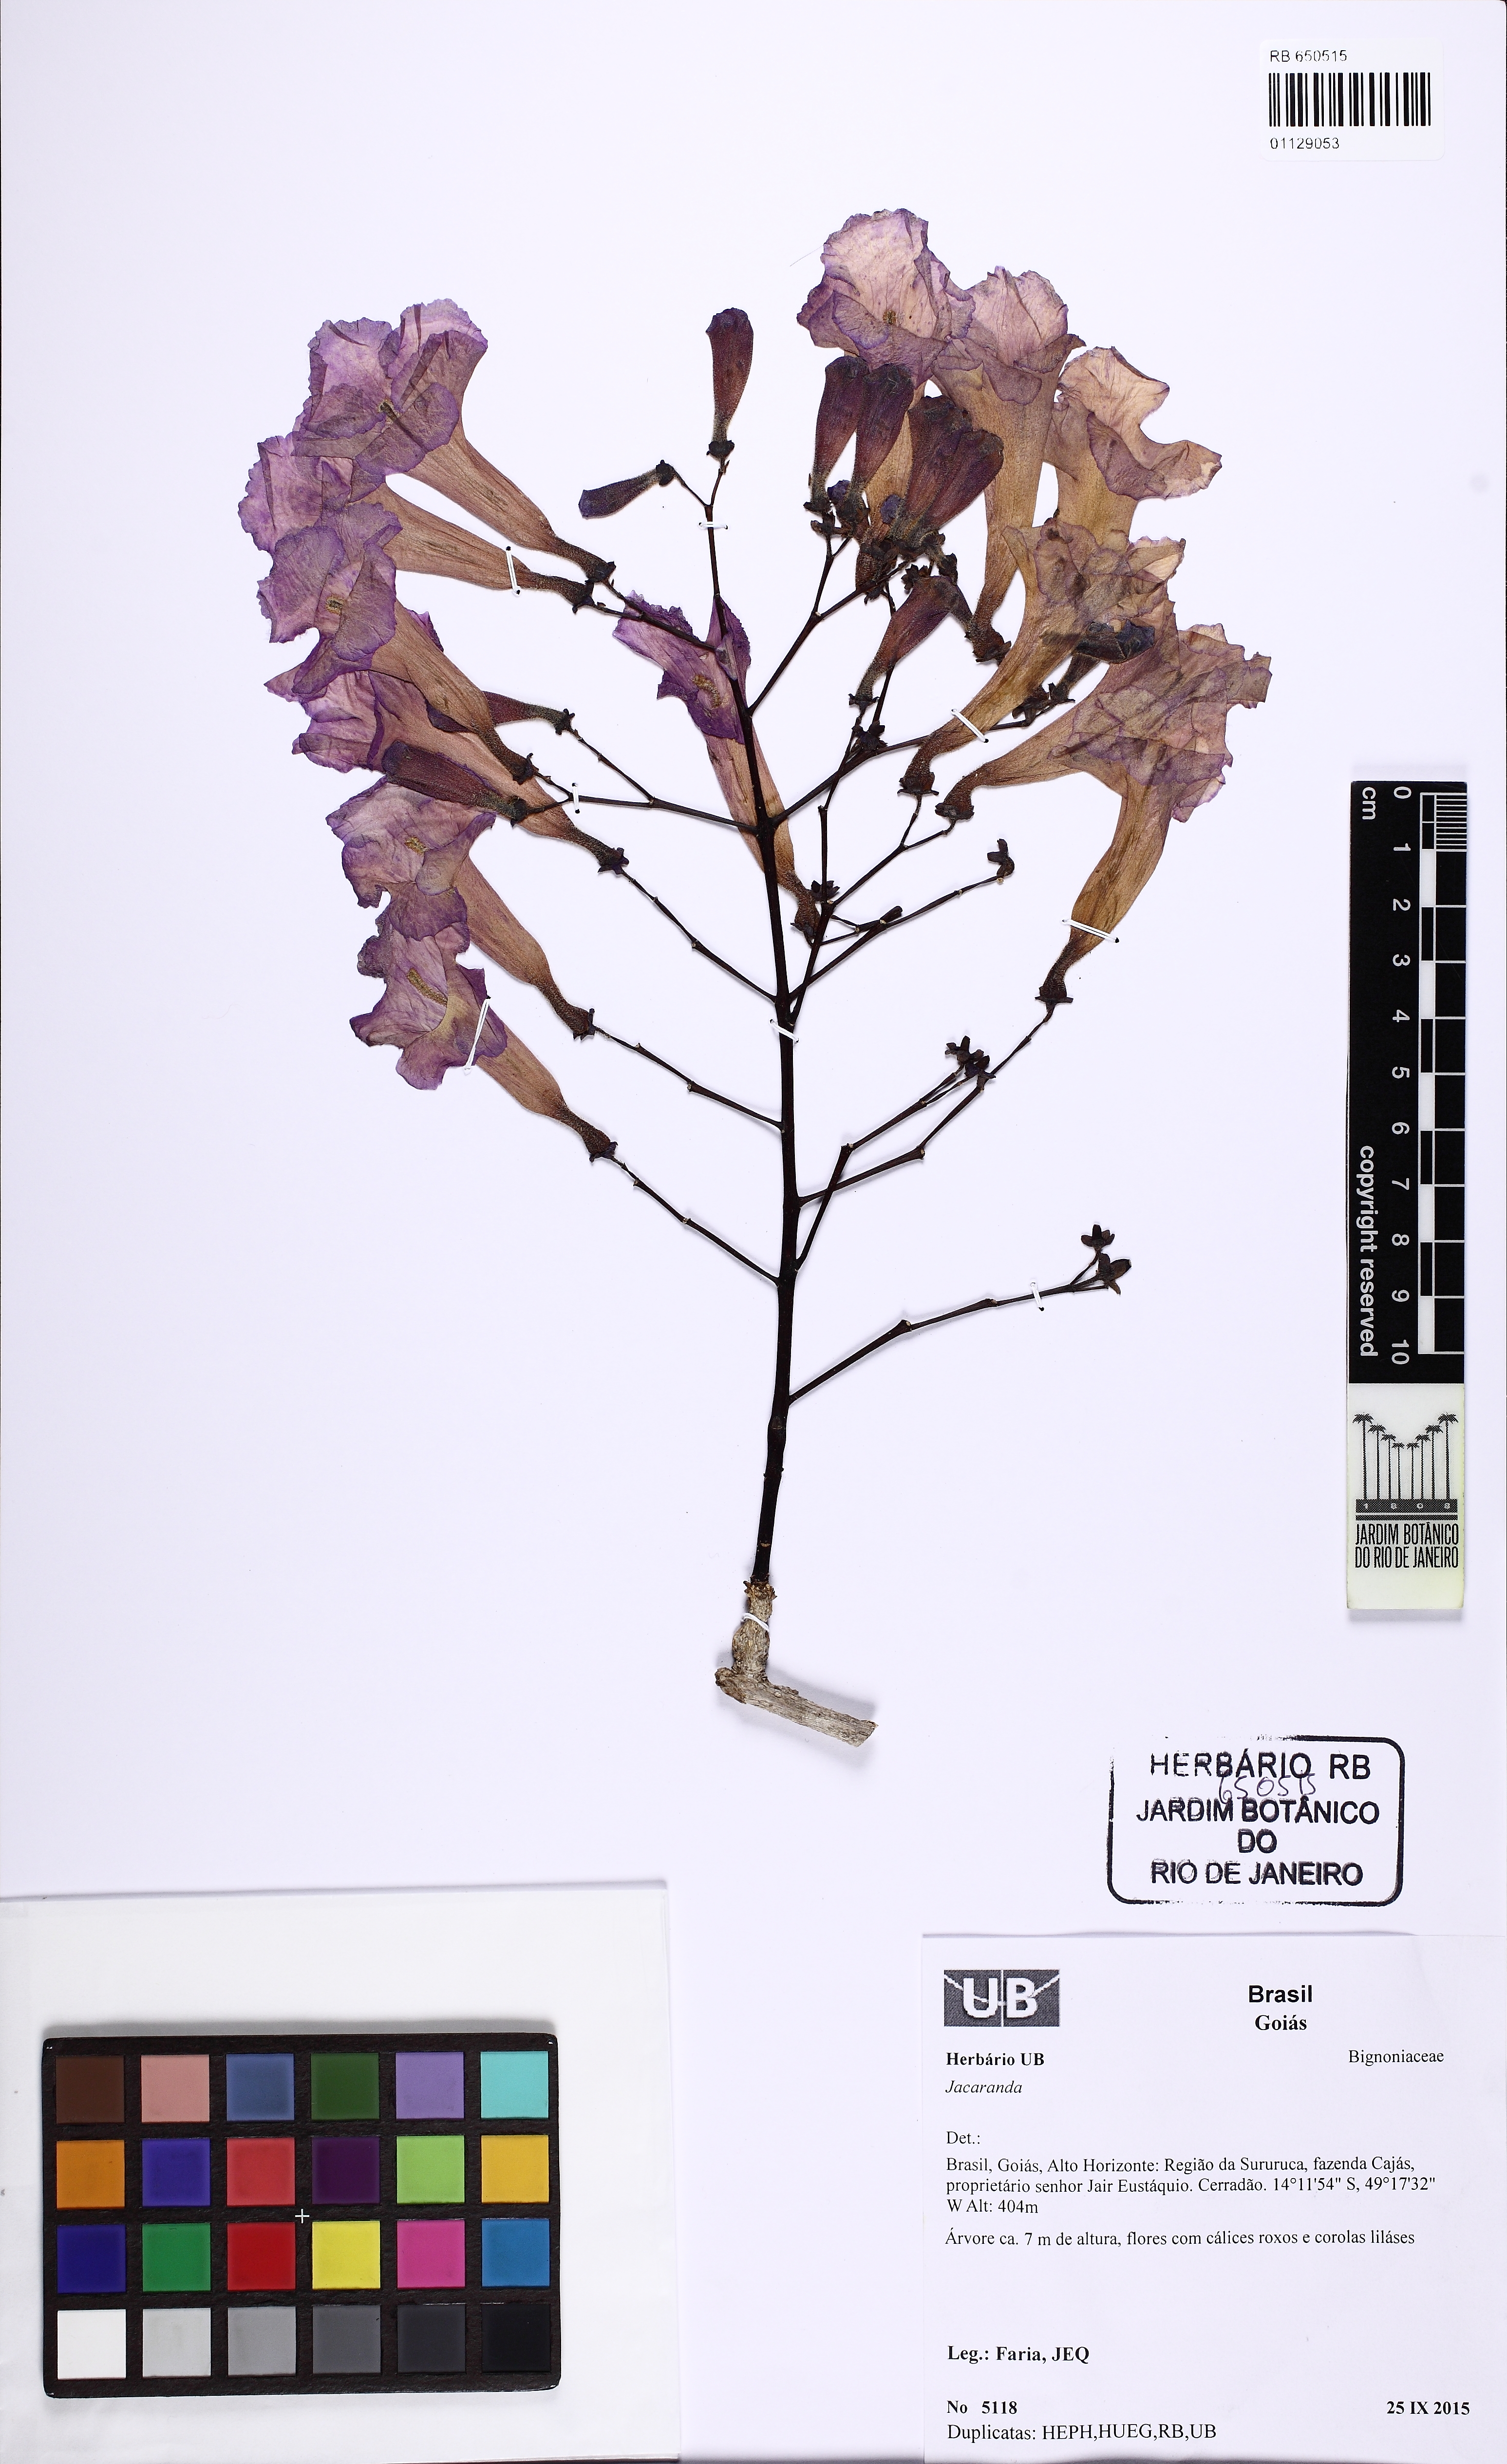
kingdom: Plantae
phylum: Tracheophyta
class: Magnoliopsida
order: Lamiales
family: Bignoniaceae
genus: Jacaranda
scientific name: Jacaranda
